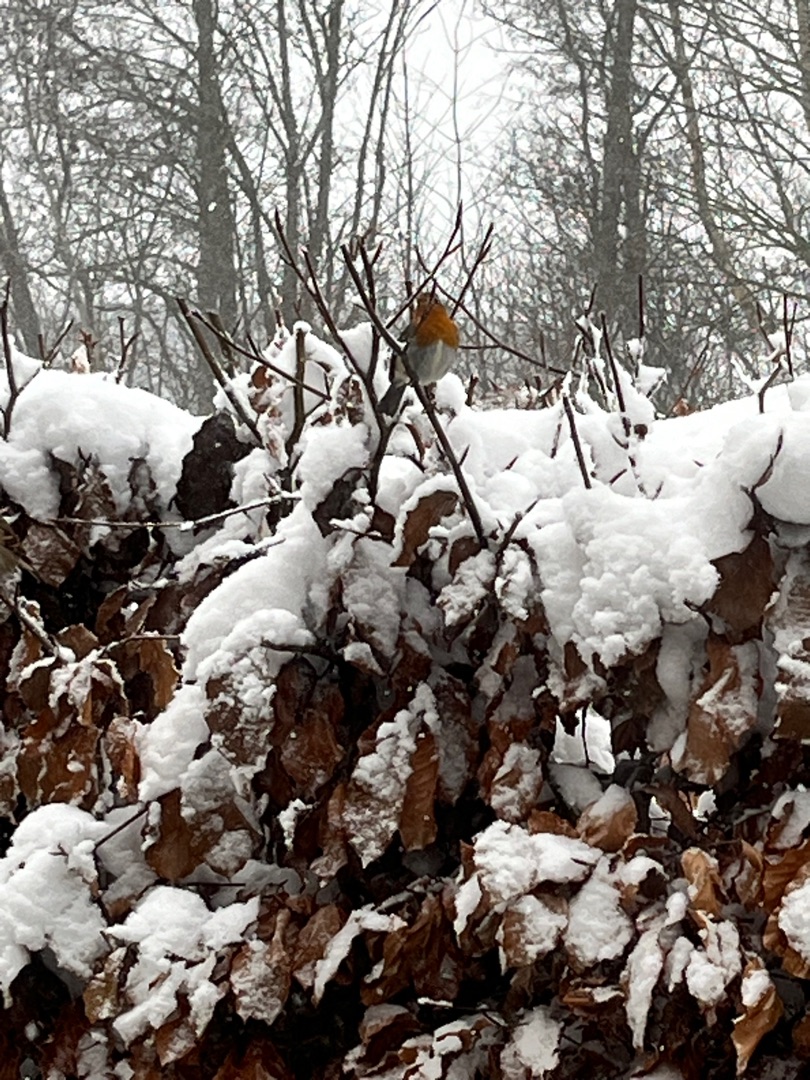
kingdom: Animalia
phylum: Chordata
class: Aves
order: Passeriformes
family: Muscicapidae
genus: Erithacus
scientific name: Erithacus rubecula
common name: Rødhals/rødkælk
